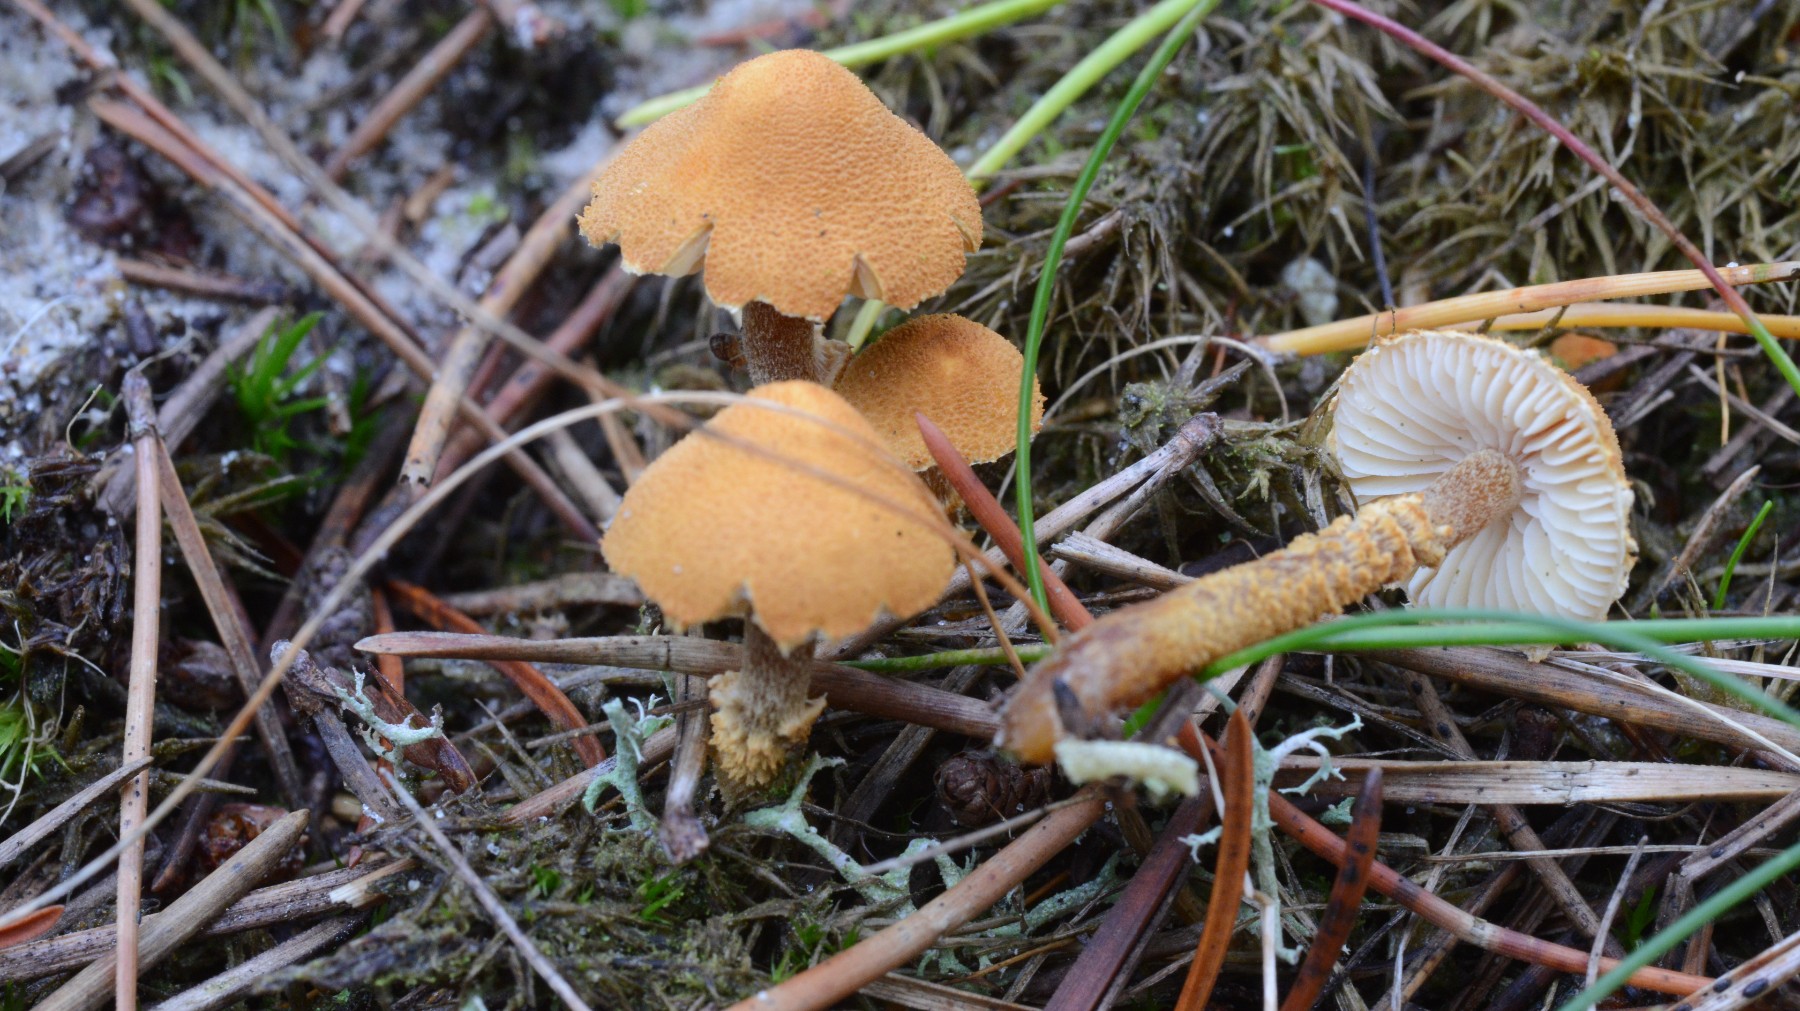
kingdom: Fungi
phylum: Basidiomycota
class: Agaricomycetes
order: Agaricales
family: Tricholomataceae
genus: Cystoderma
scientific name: Cystoderma jasonis
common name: gulkødet grynhat
